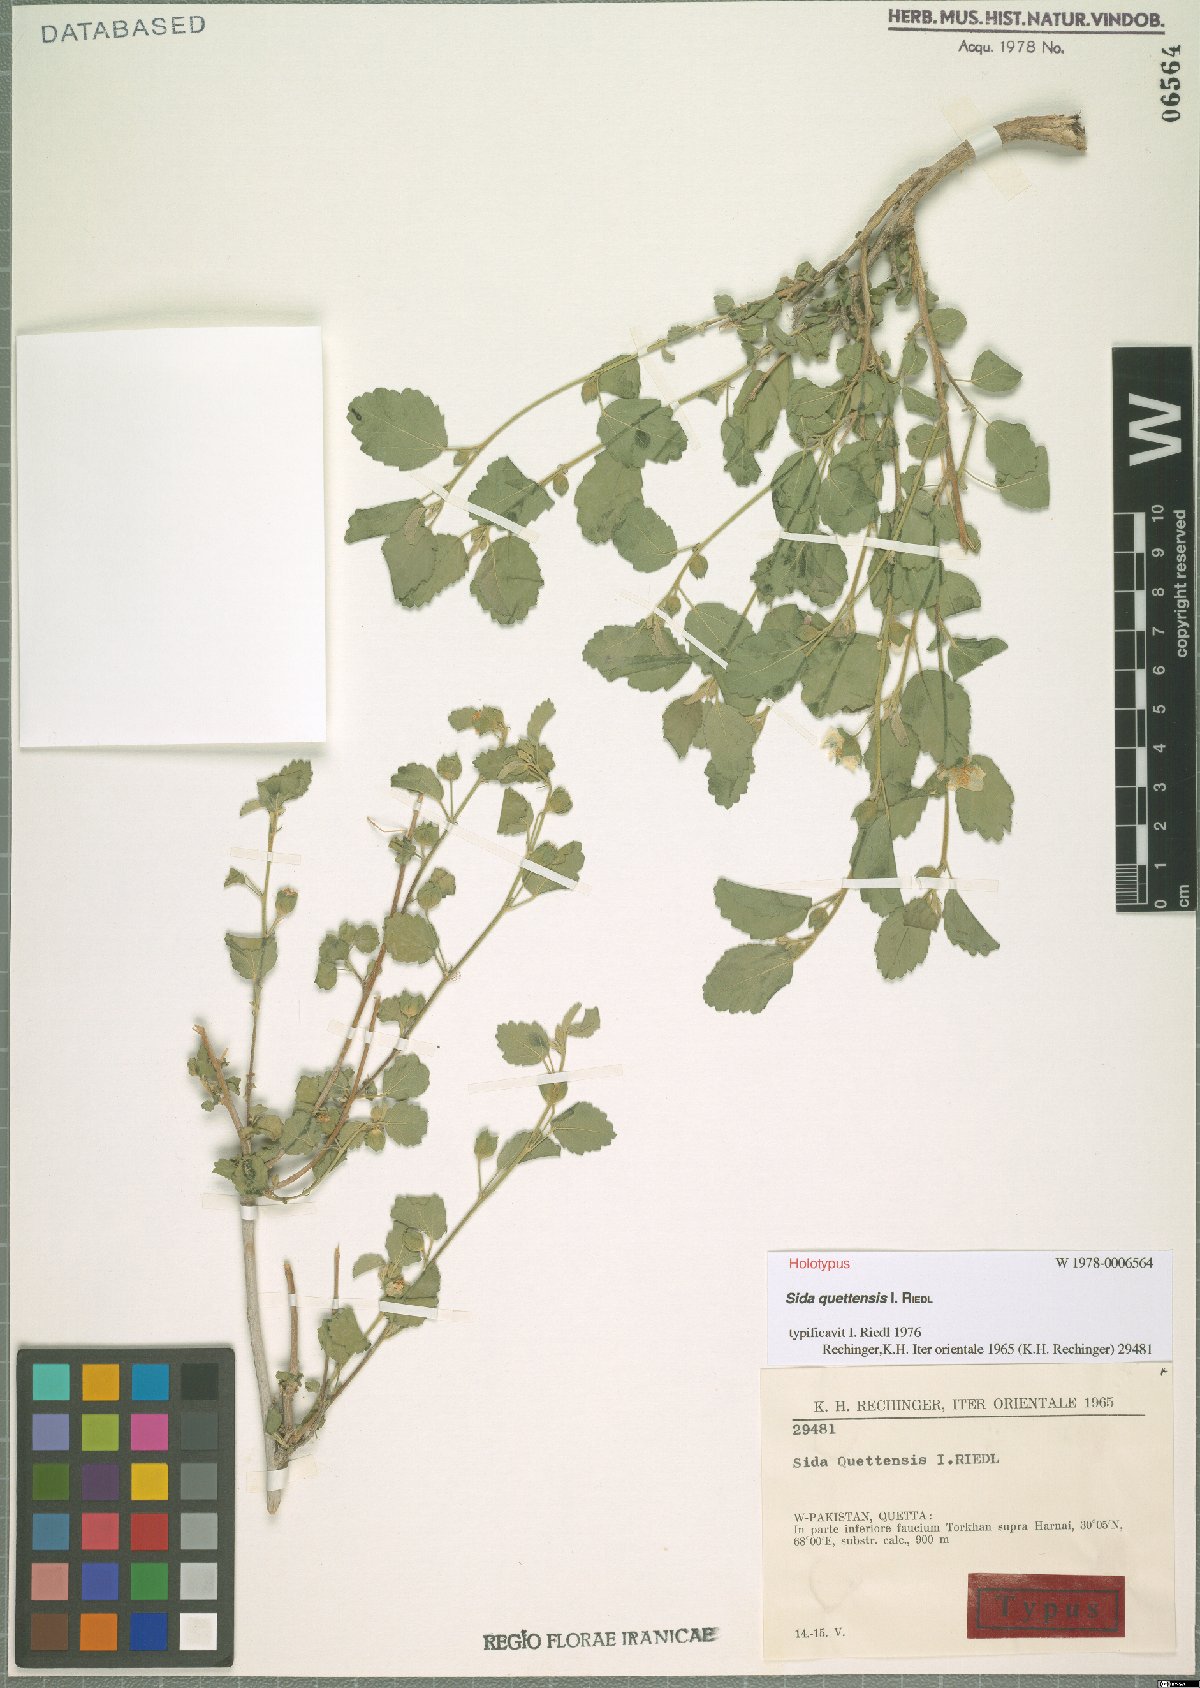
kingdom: Plantae
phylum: Tracheophyta
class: Magnoliopsida
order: Malvales
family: Malvaceae
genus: Sida
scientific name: Sida quettensis
